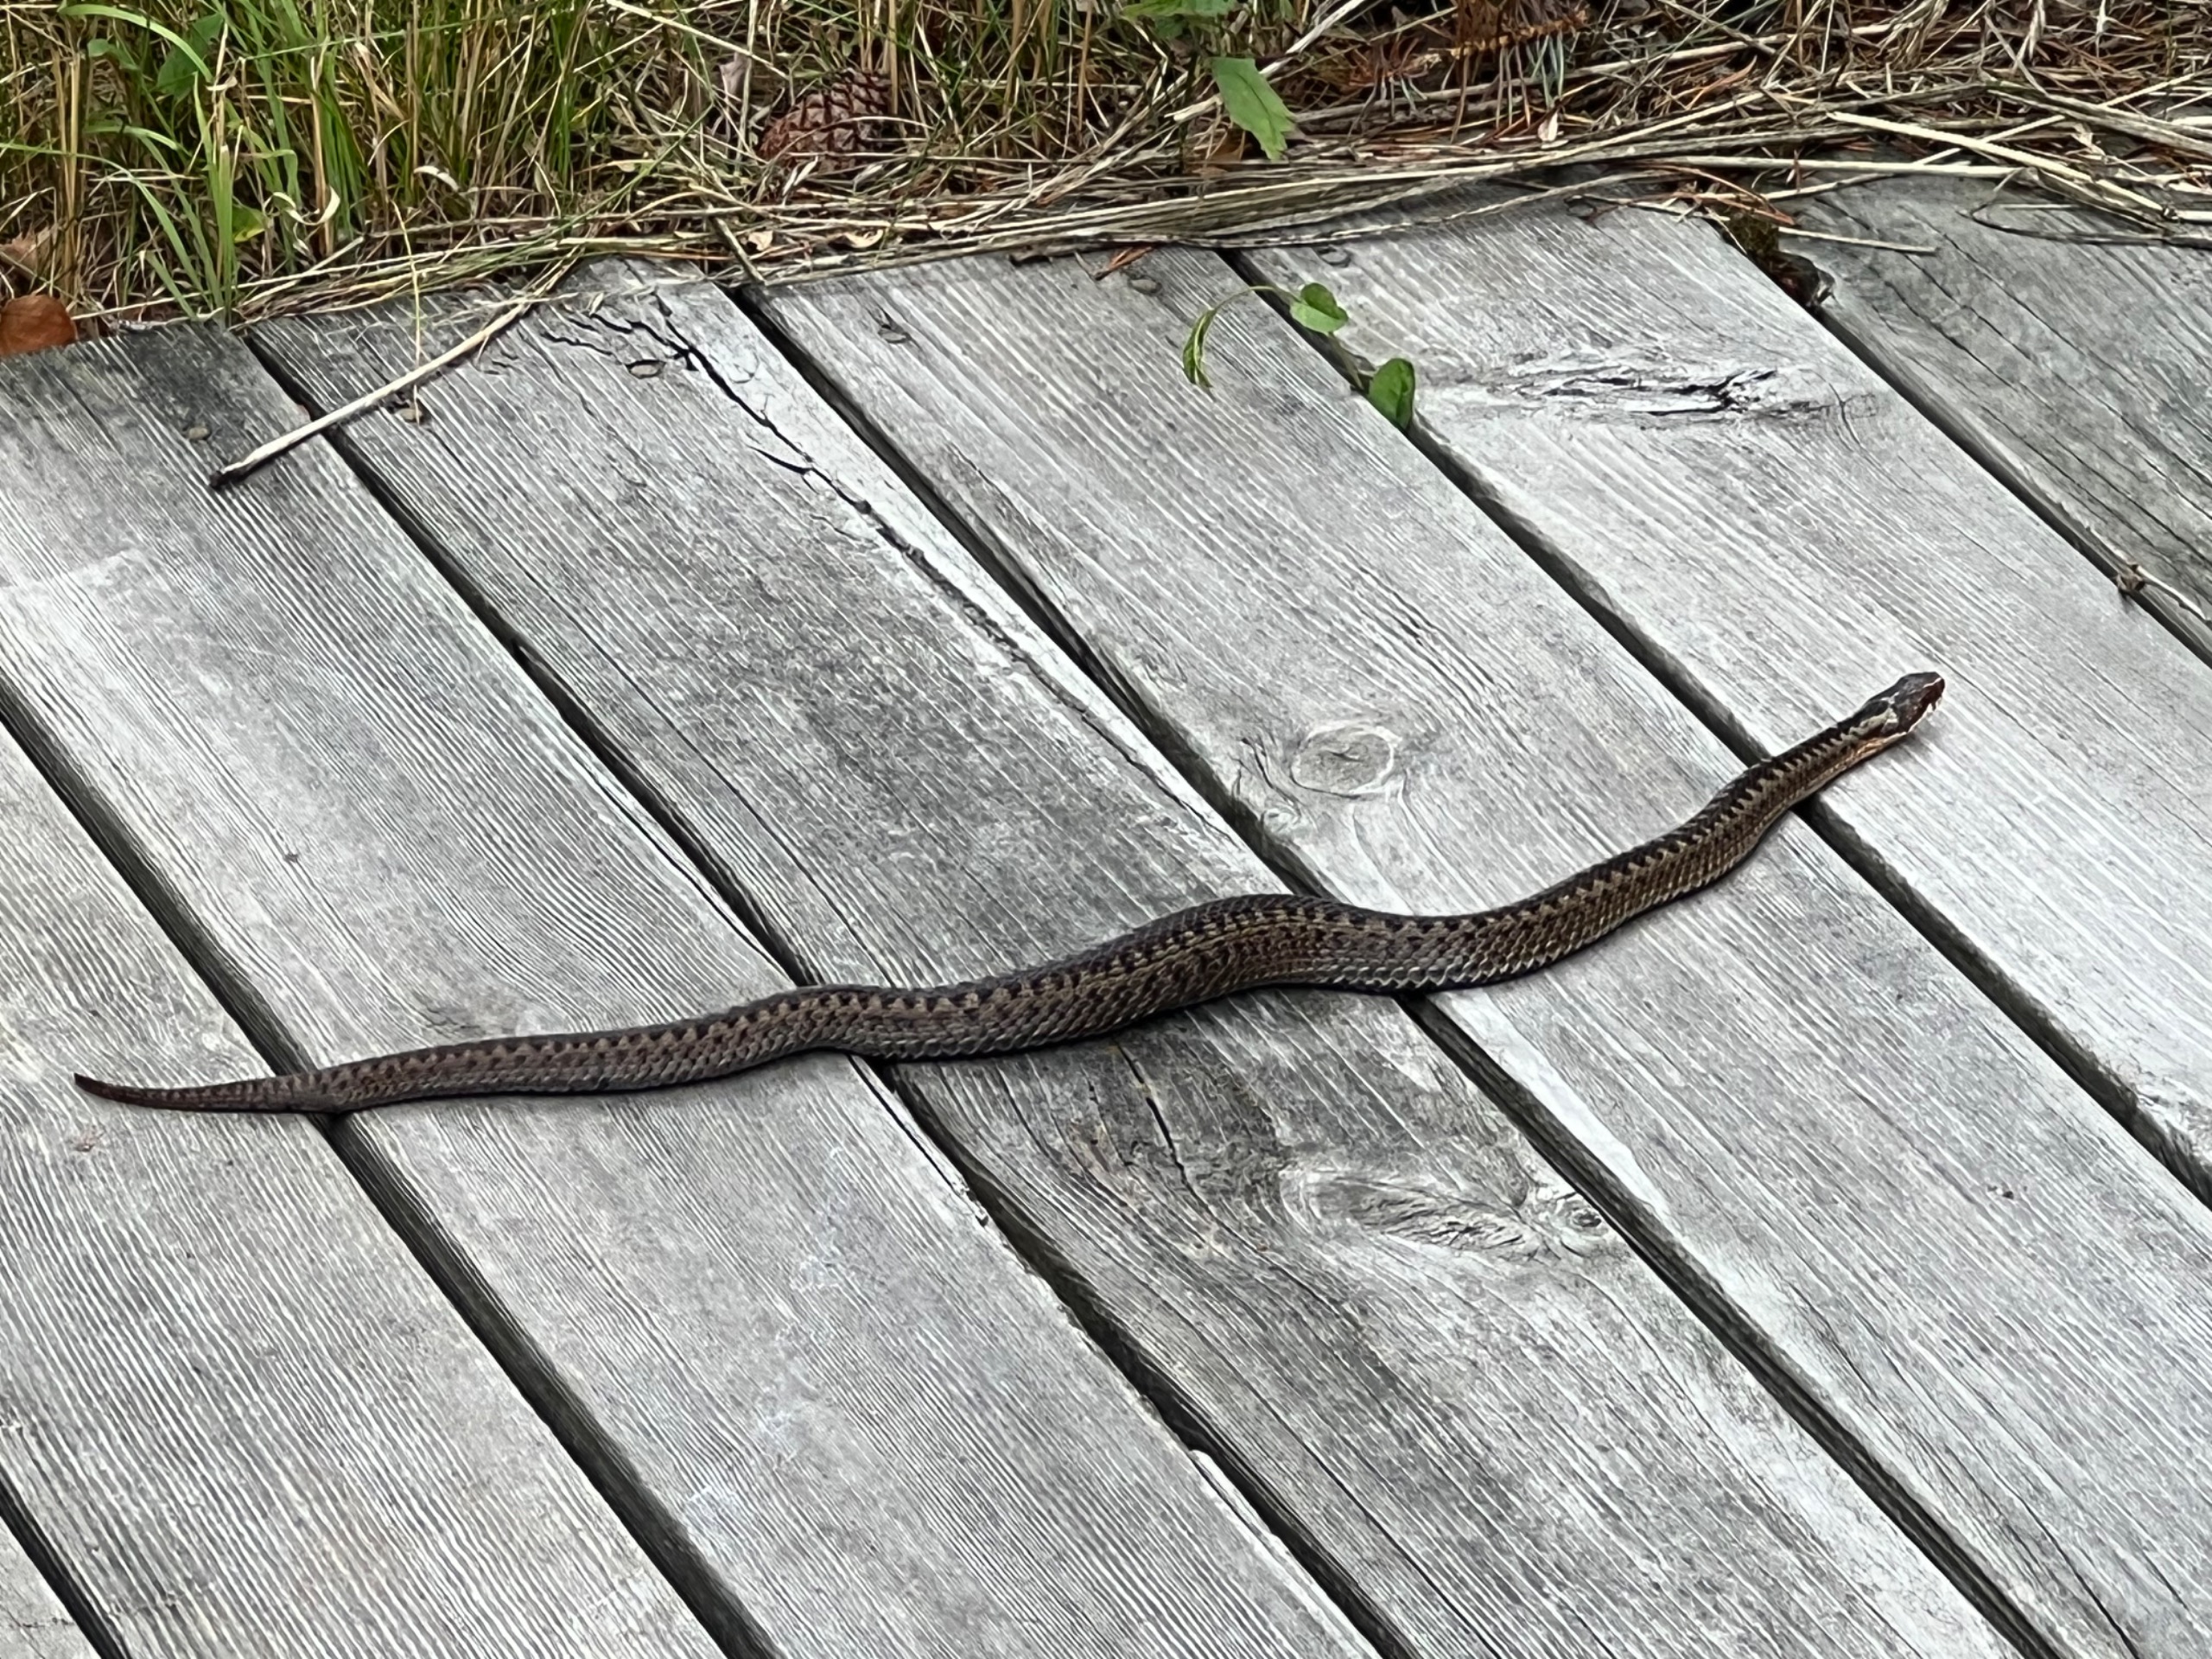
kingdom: Animalia
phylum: Chordata
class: Squamata
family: Viperidae
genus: Vipera
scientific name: Vipera berus
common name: Hugorm
